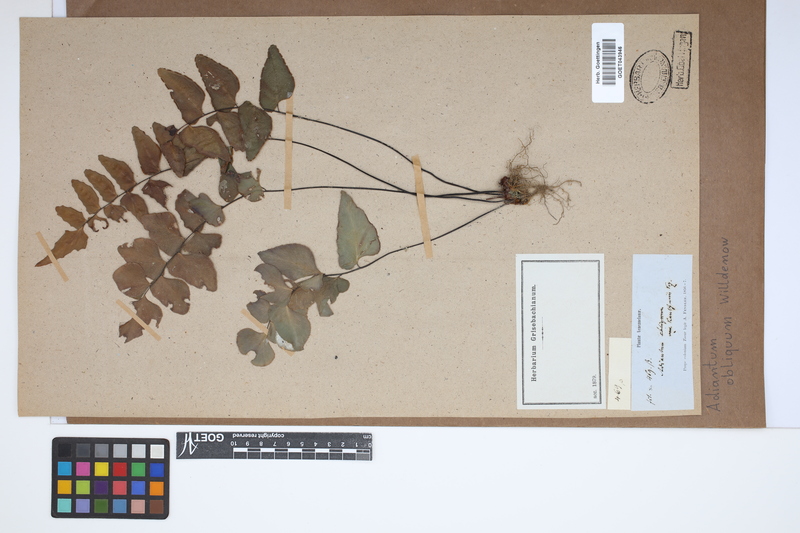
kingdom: Plantae
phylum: Tracheophyta
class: Polypodiopsida
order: Polypodiales
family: Pteridaceae
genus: Adiantum
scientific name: Adiantum obliquum
